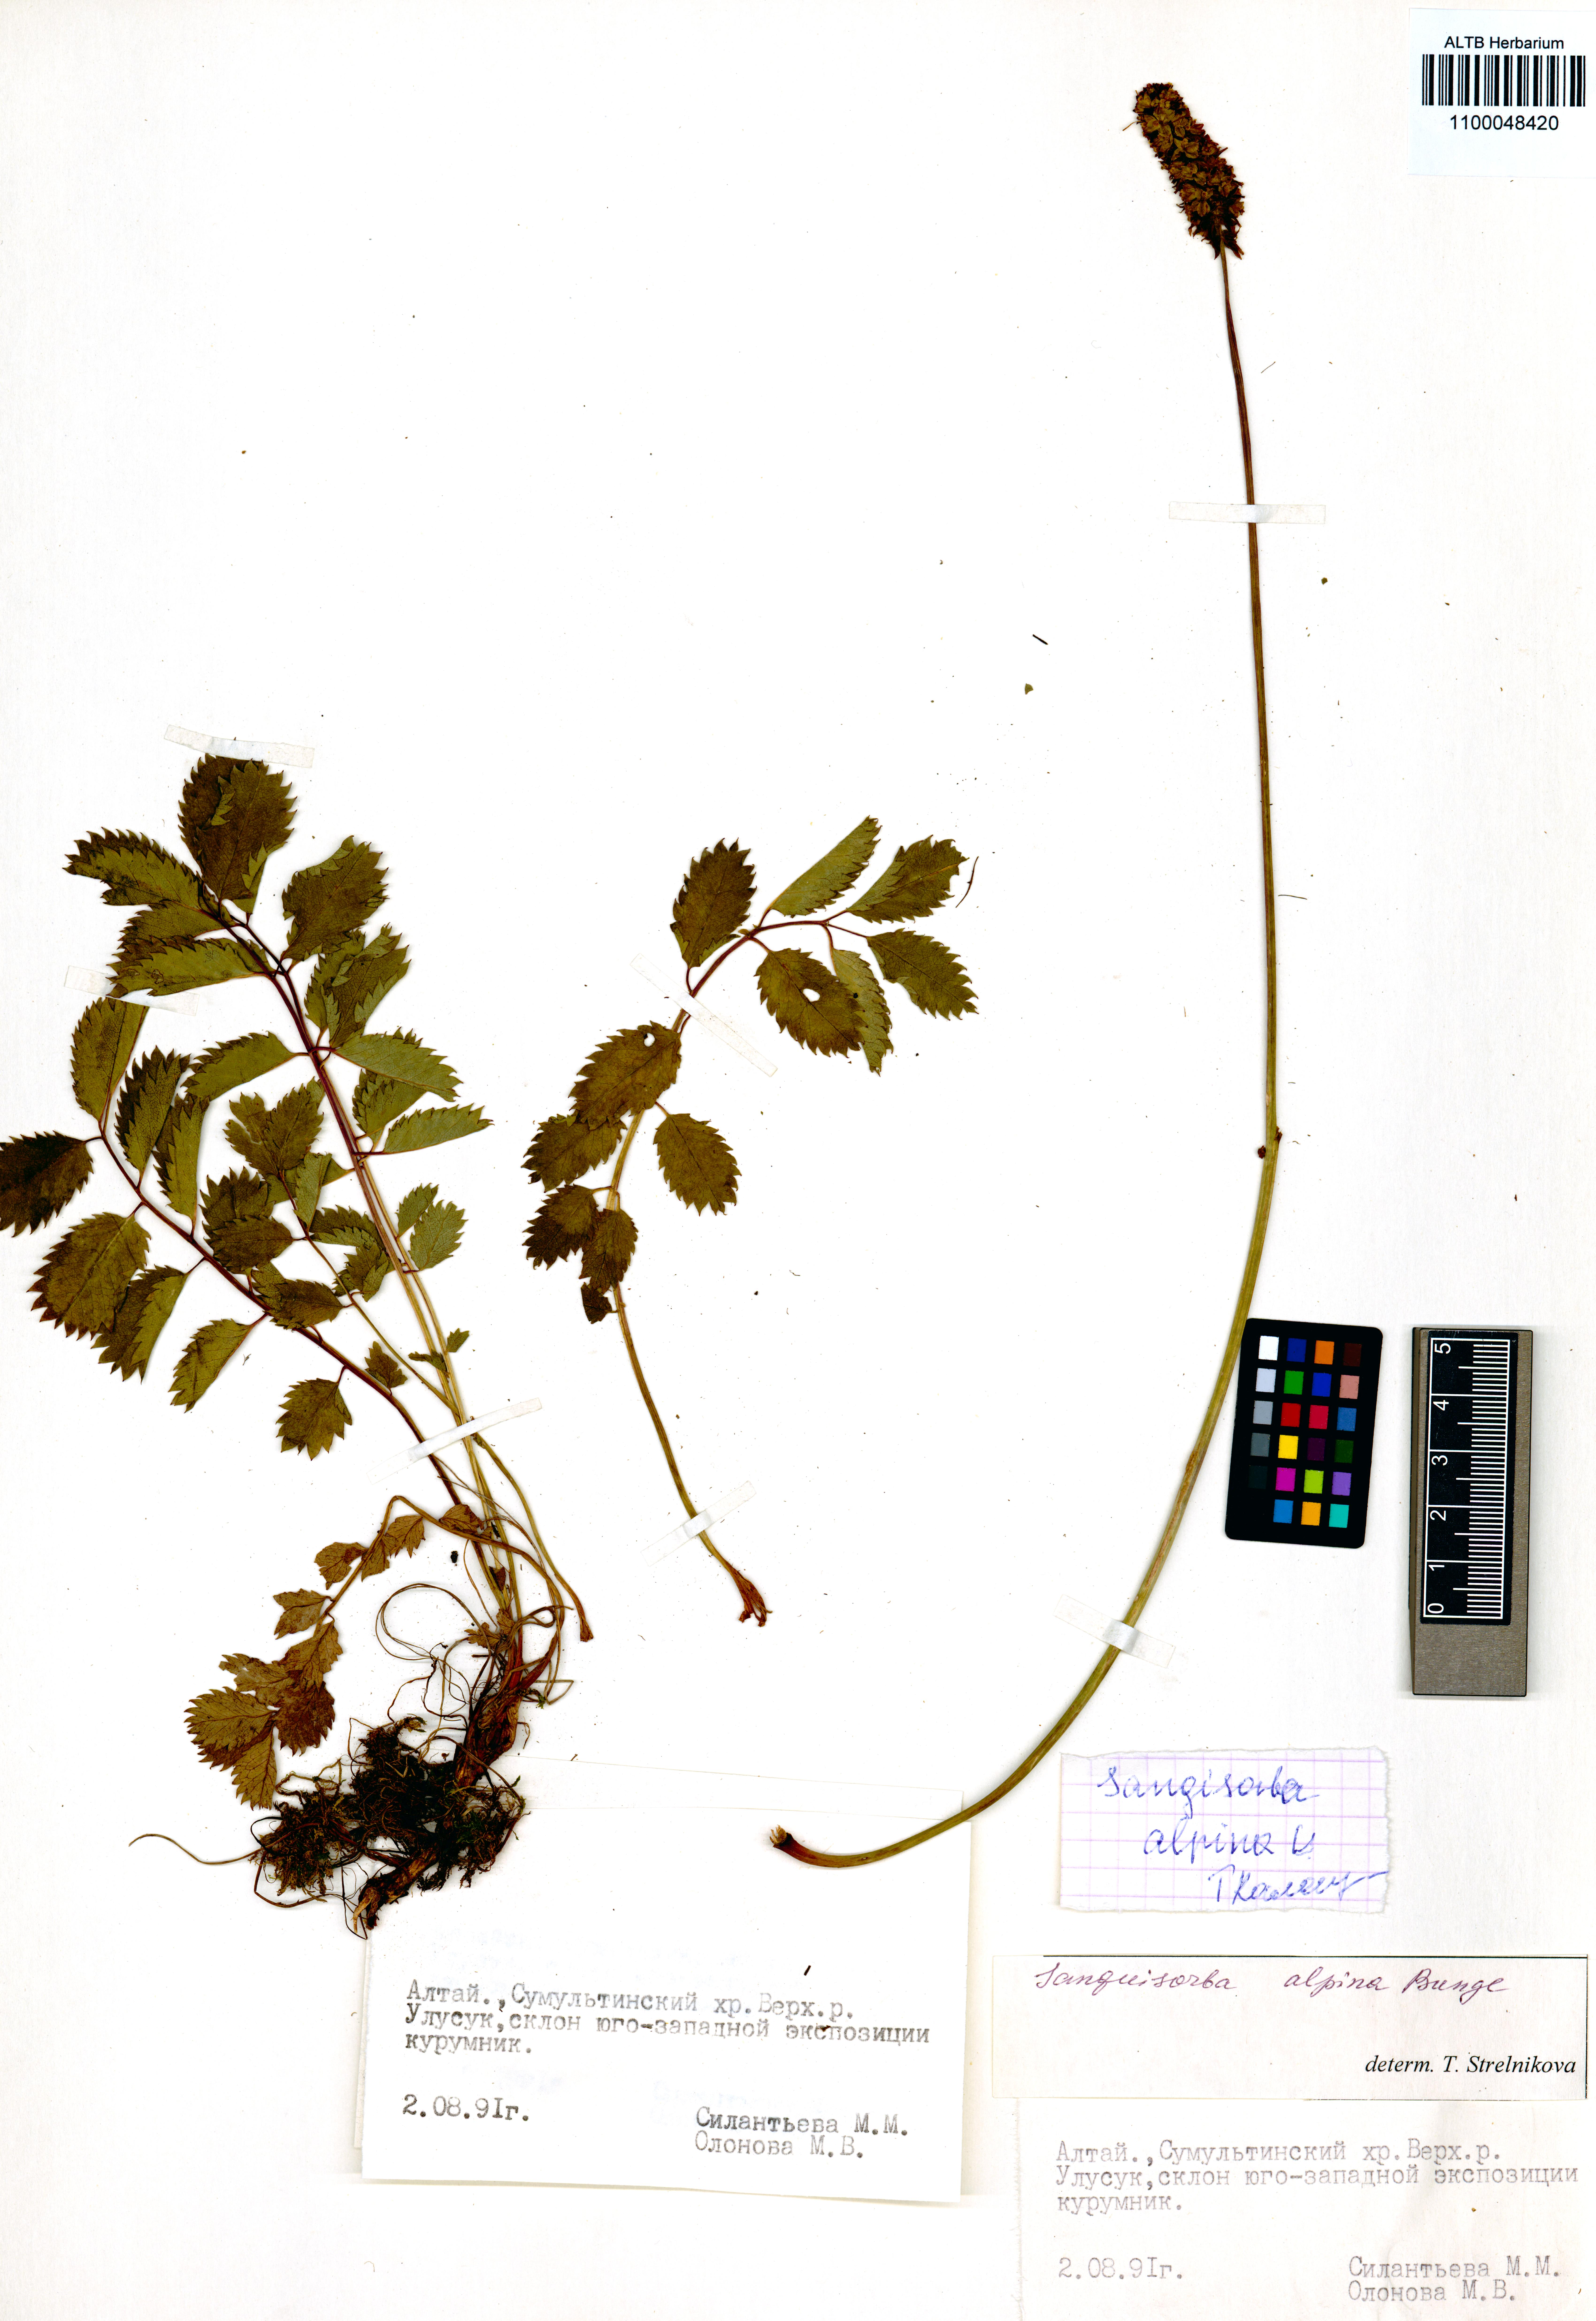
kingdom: Plantae
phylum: Tracheophyta
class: Magnoliopsida
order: Rosales
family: Rosaceae
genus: Sanguisorba
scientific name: Sanguisorba alpina
